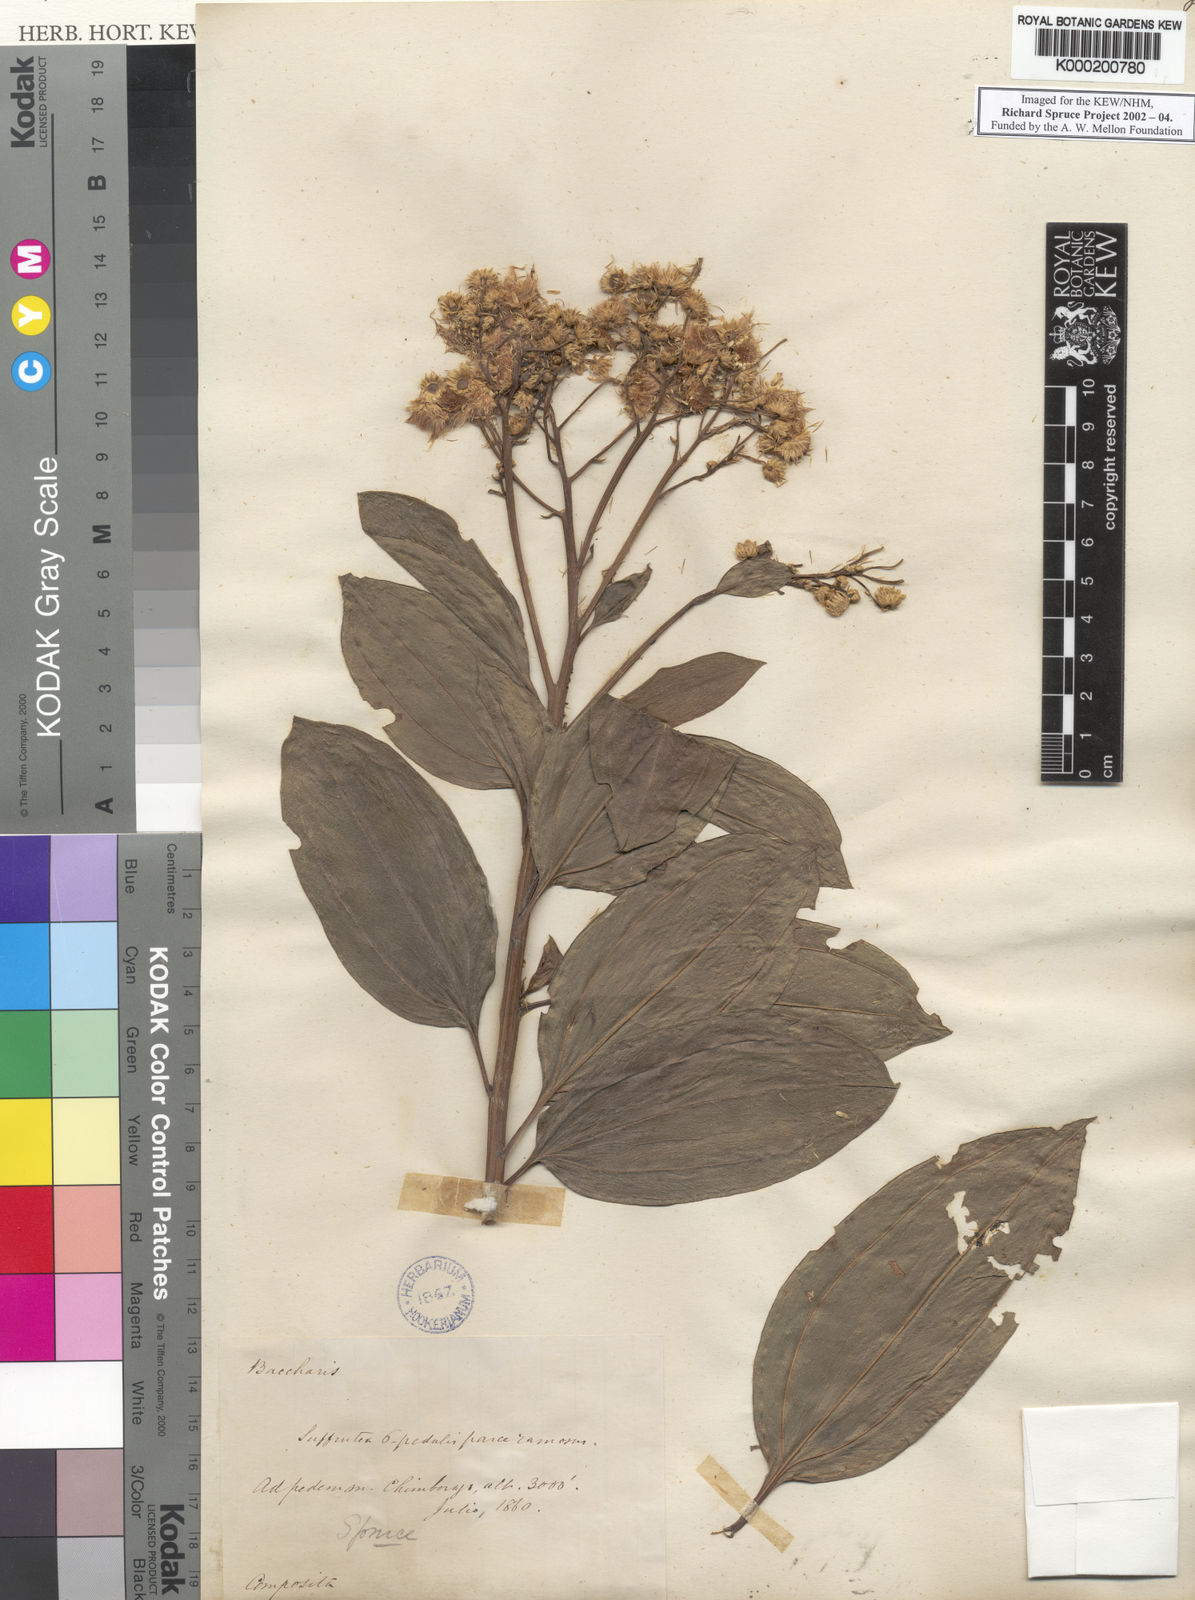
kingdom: Plantae
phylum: Tracheophyta
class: Magnoliopsida
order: Asterales
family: Asteraceae
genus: Baccharis
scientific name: Baccharis pedunculata
